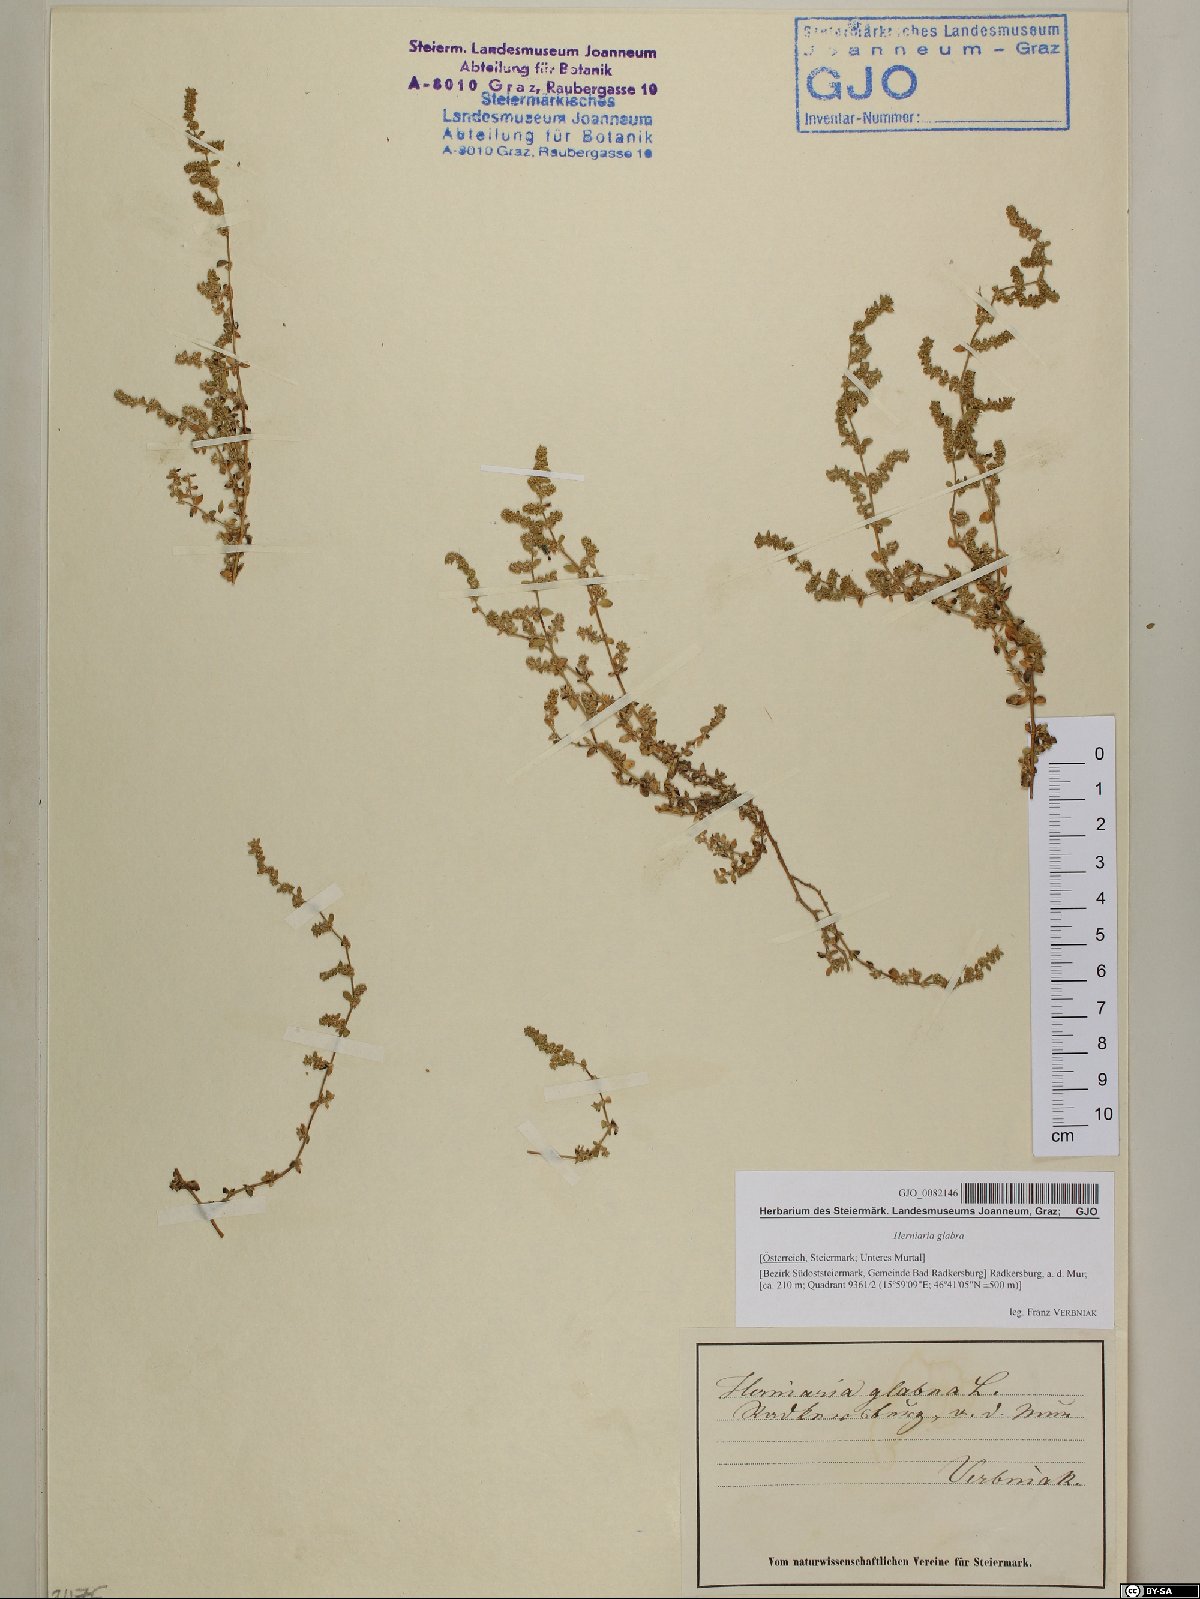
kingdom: Plantae
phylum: Tracheophyta
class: Magnoliopsida
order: Caryophyllales
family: Caryophyllaceae
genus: Herniaria
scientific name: Herniaria glabra
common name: Smooth rupturewort
